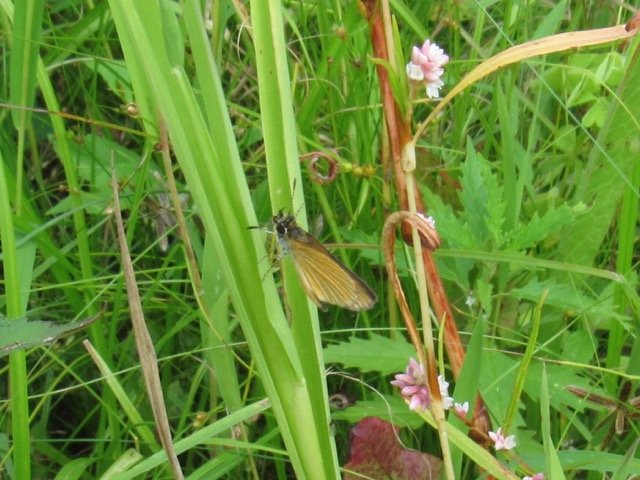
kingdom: Animalia
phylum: Arthropoda
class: Insecta
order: Lepidoptera
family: Hesperiidae
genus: Ancyloxypha
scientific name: Ancyloxypha numitor
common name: Least Skipper
